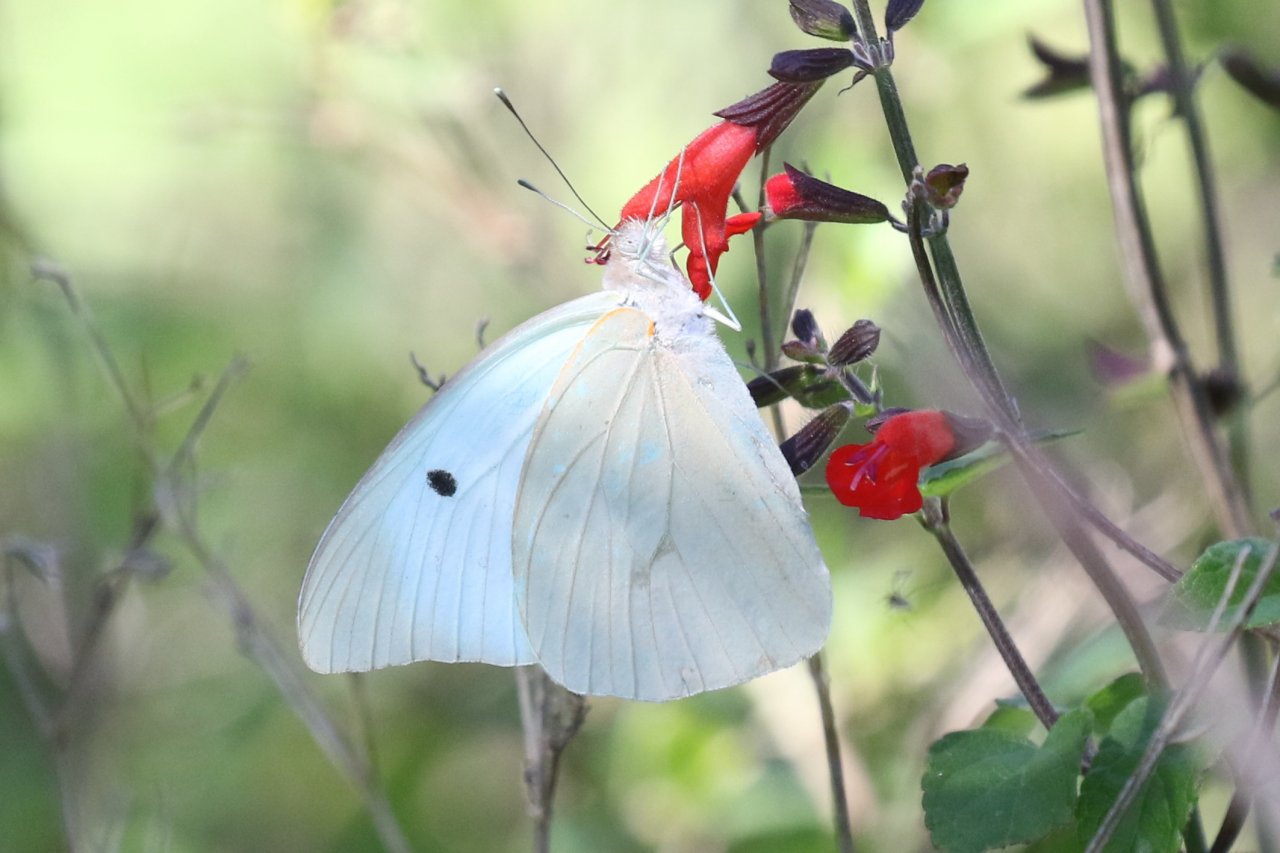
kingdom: Animalia
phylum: Arthropoda
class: Insecta
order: Lepidoptera
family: Pieridae
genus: Ganyra
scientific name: Ganyra josephina
